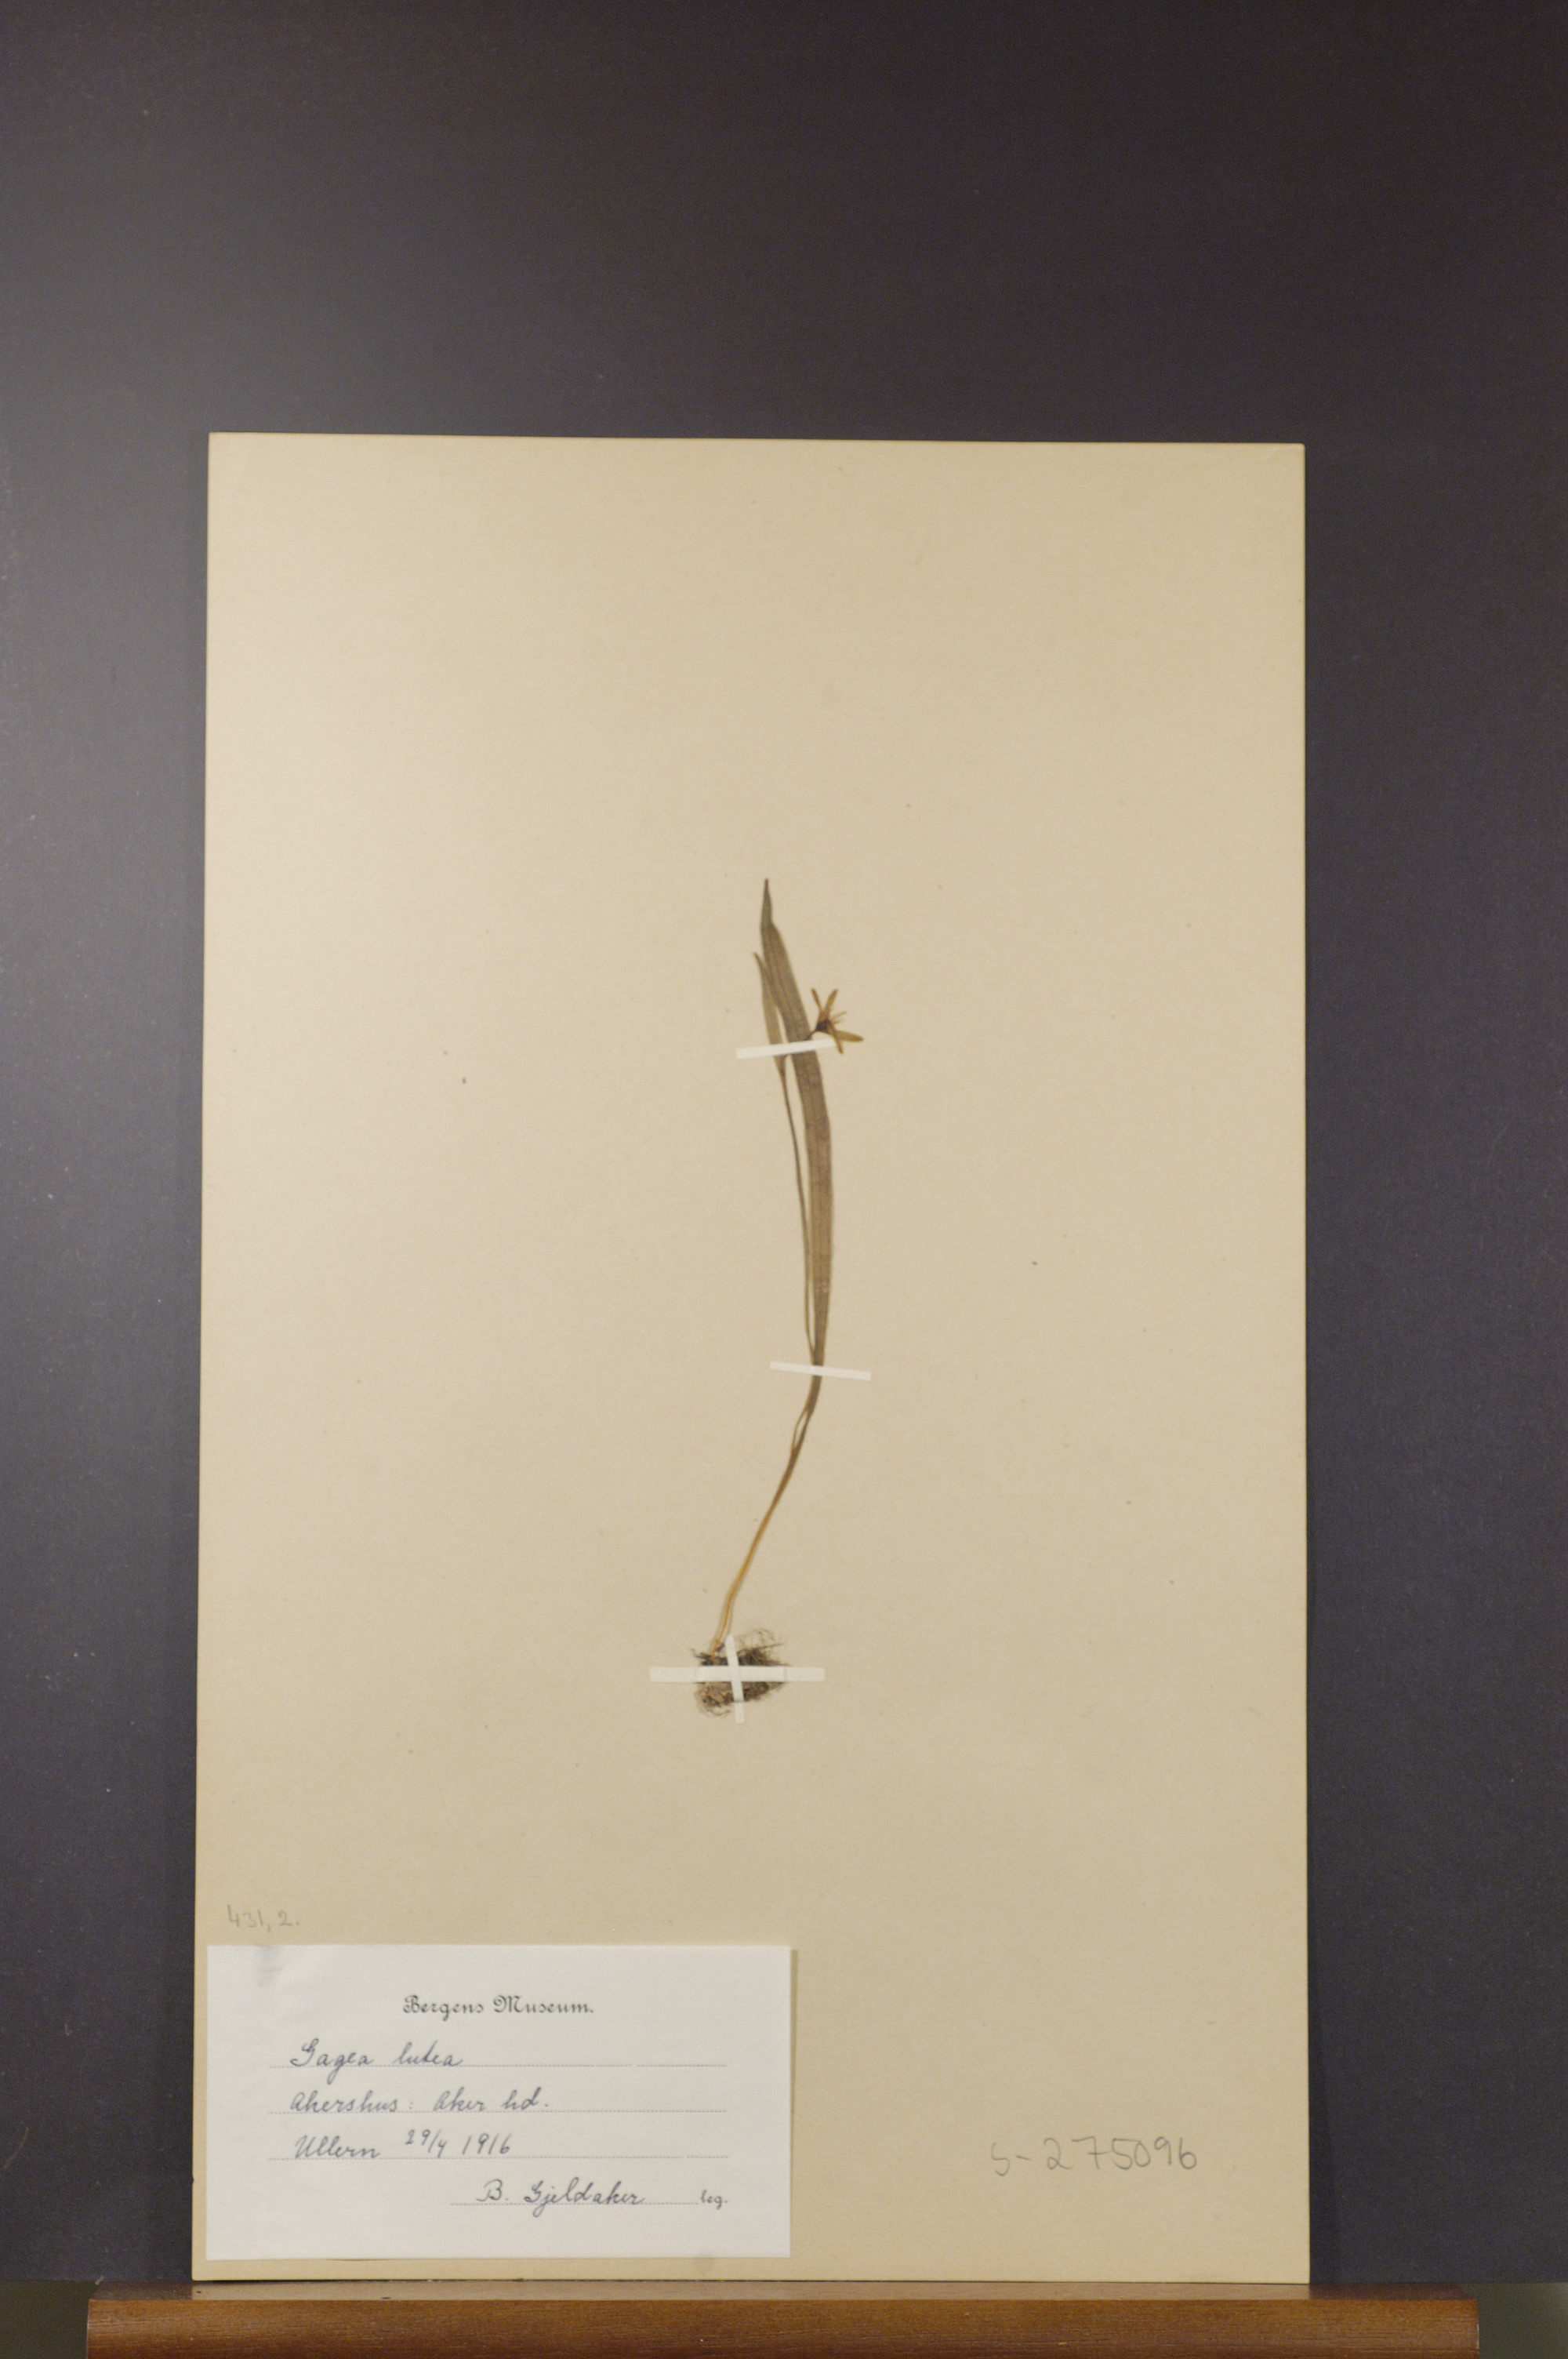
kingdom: Plantae
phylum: Tracheophyta
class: Liliopsida
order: Liliales
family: Liliaceae
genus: Gagea
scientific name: Gagea lutea
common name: Yellow star-of-bethlehem
